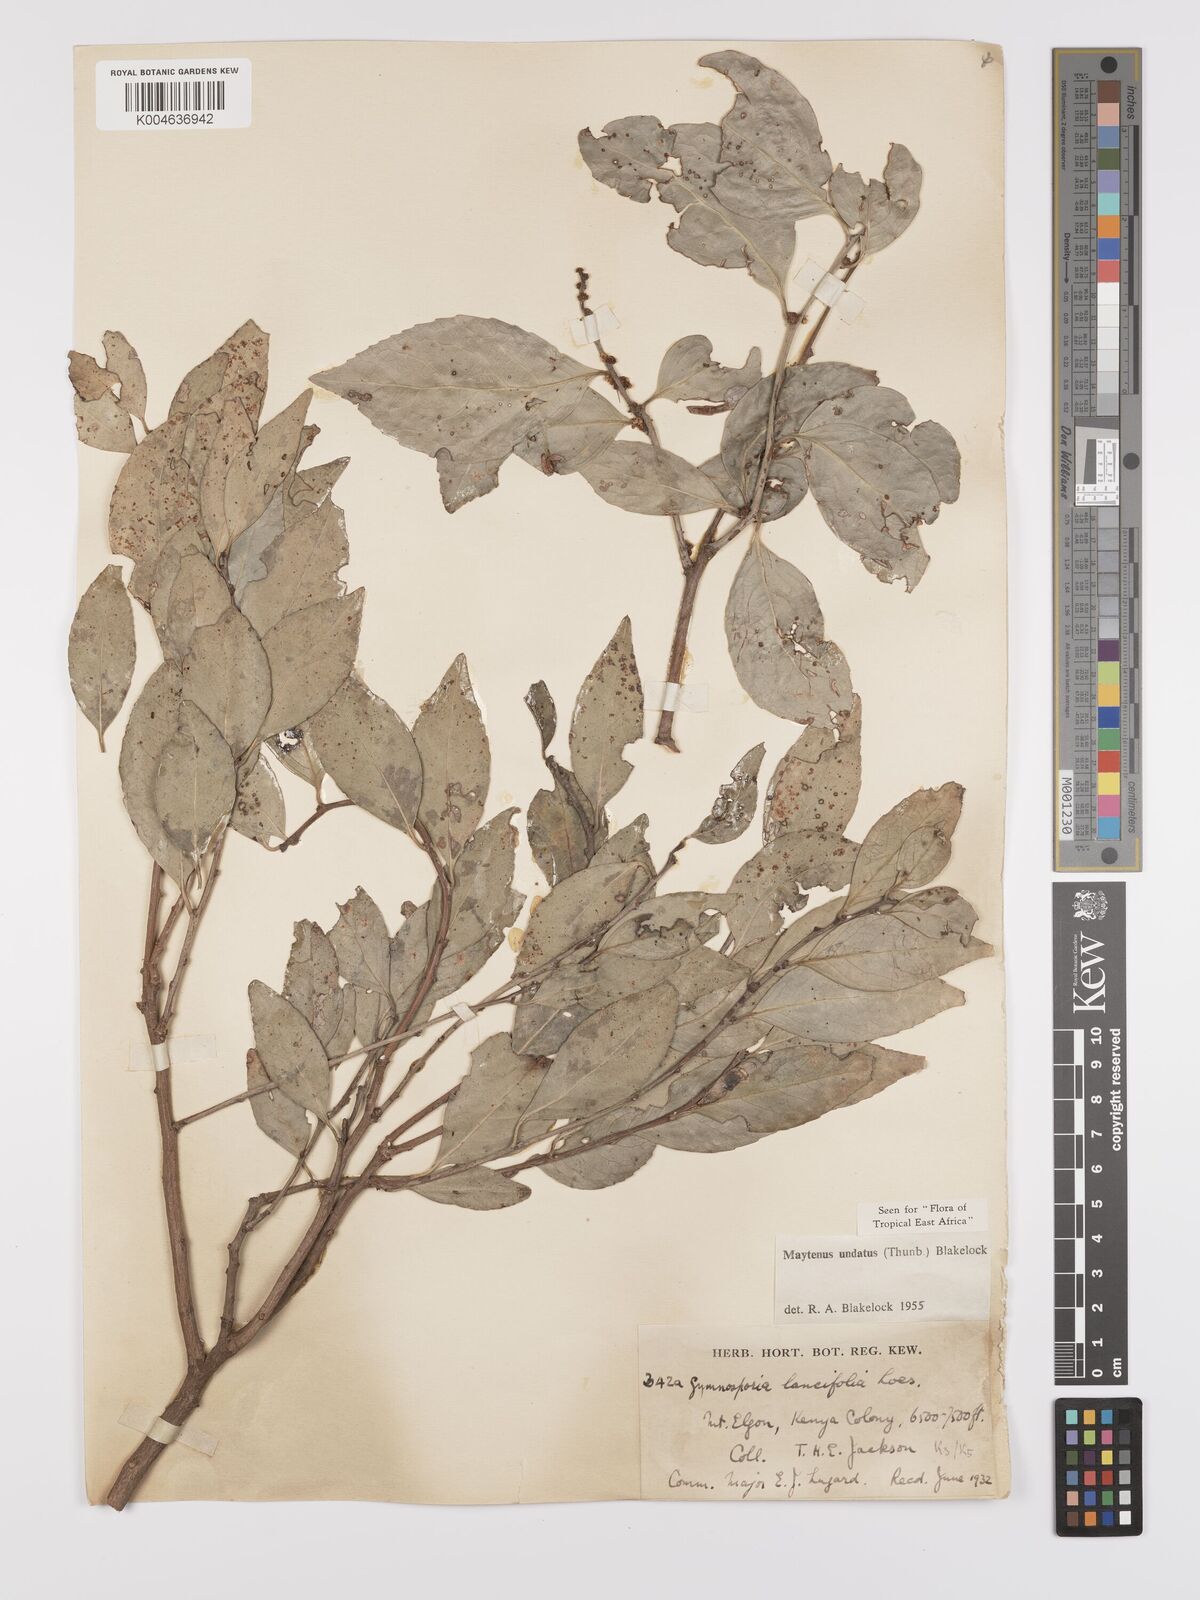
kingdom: Plantae
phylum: Tracheophyta
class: Magnoliopsida
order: Celastrales
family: Celastraceae
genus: Gymnosporia
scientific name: Gymnosporia undata
